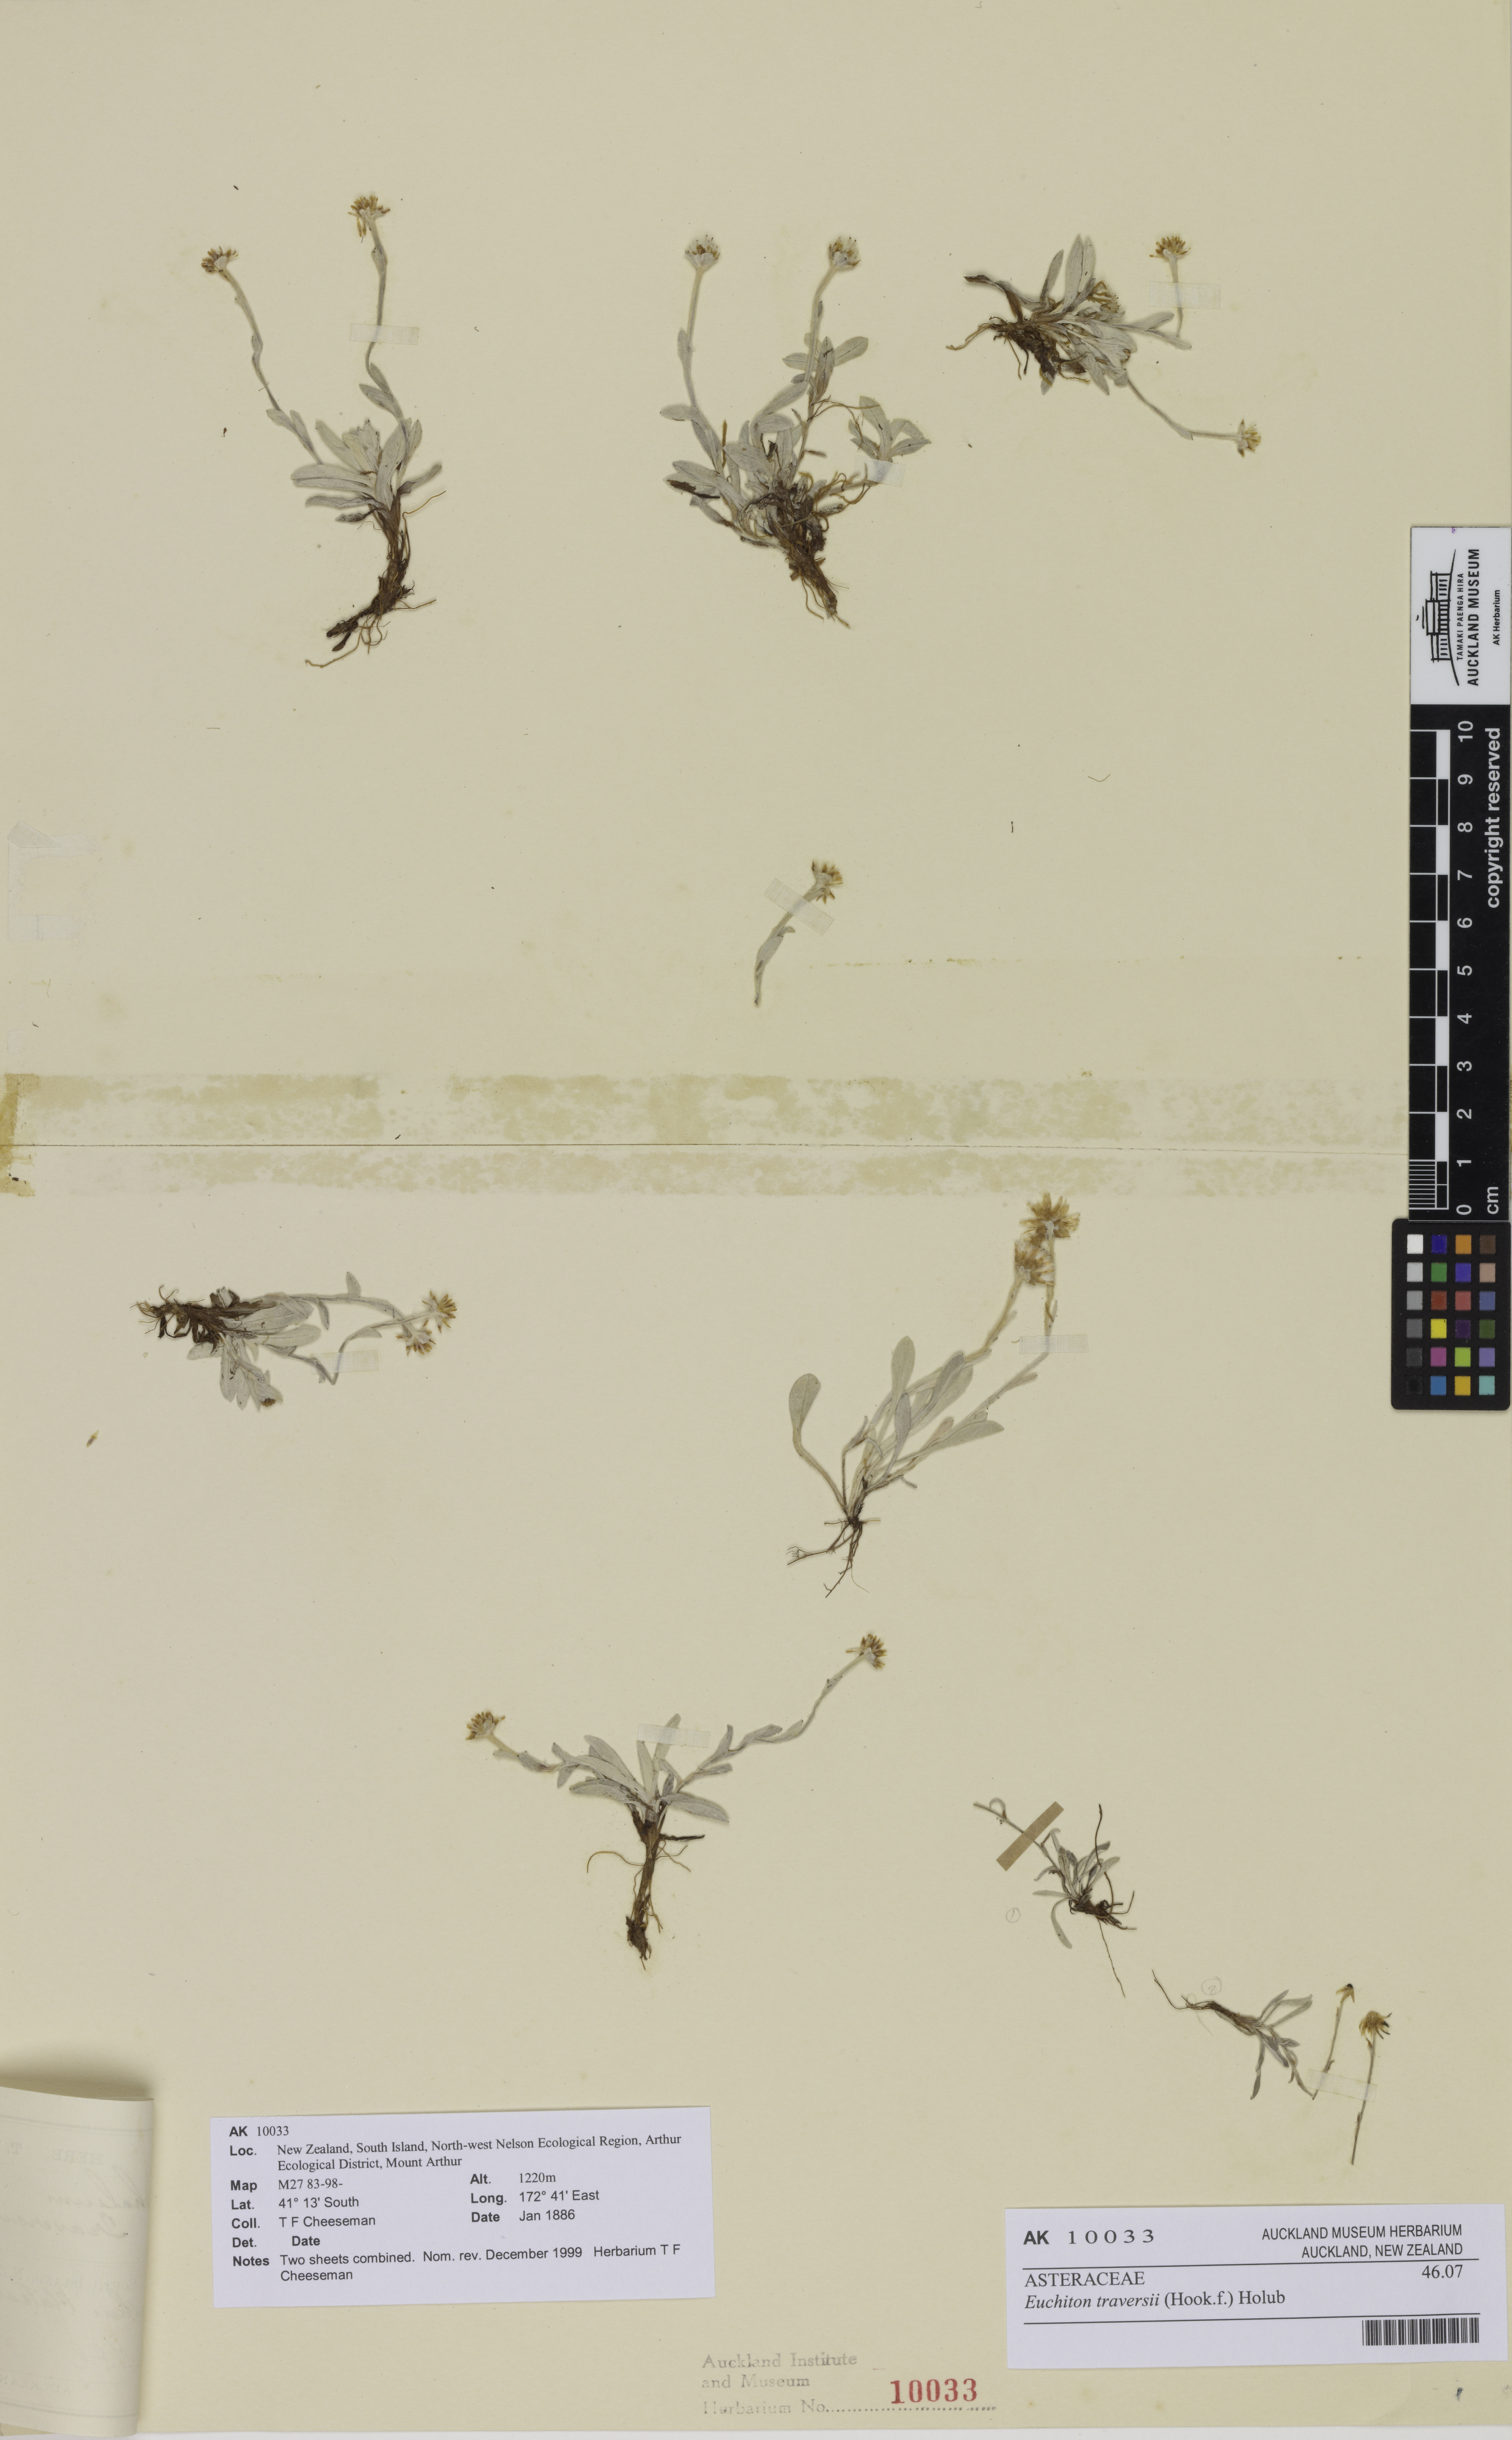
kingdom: Plantae
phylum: Tracheophyta
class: Magnoliopsida
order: Asterales
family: Asteraceae
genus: Euchiton
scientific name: Euchiton traversii
